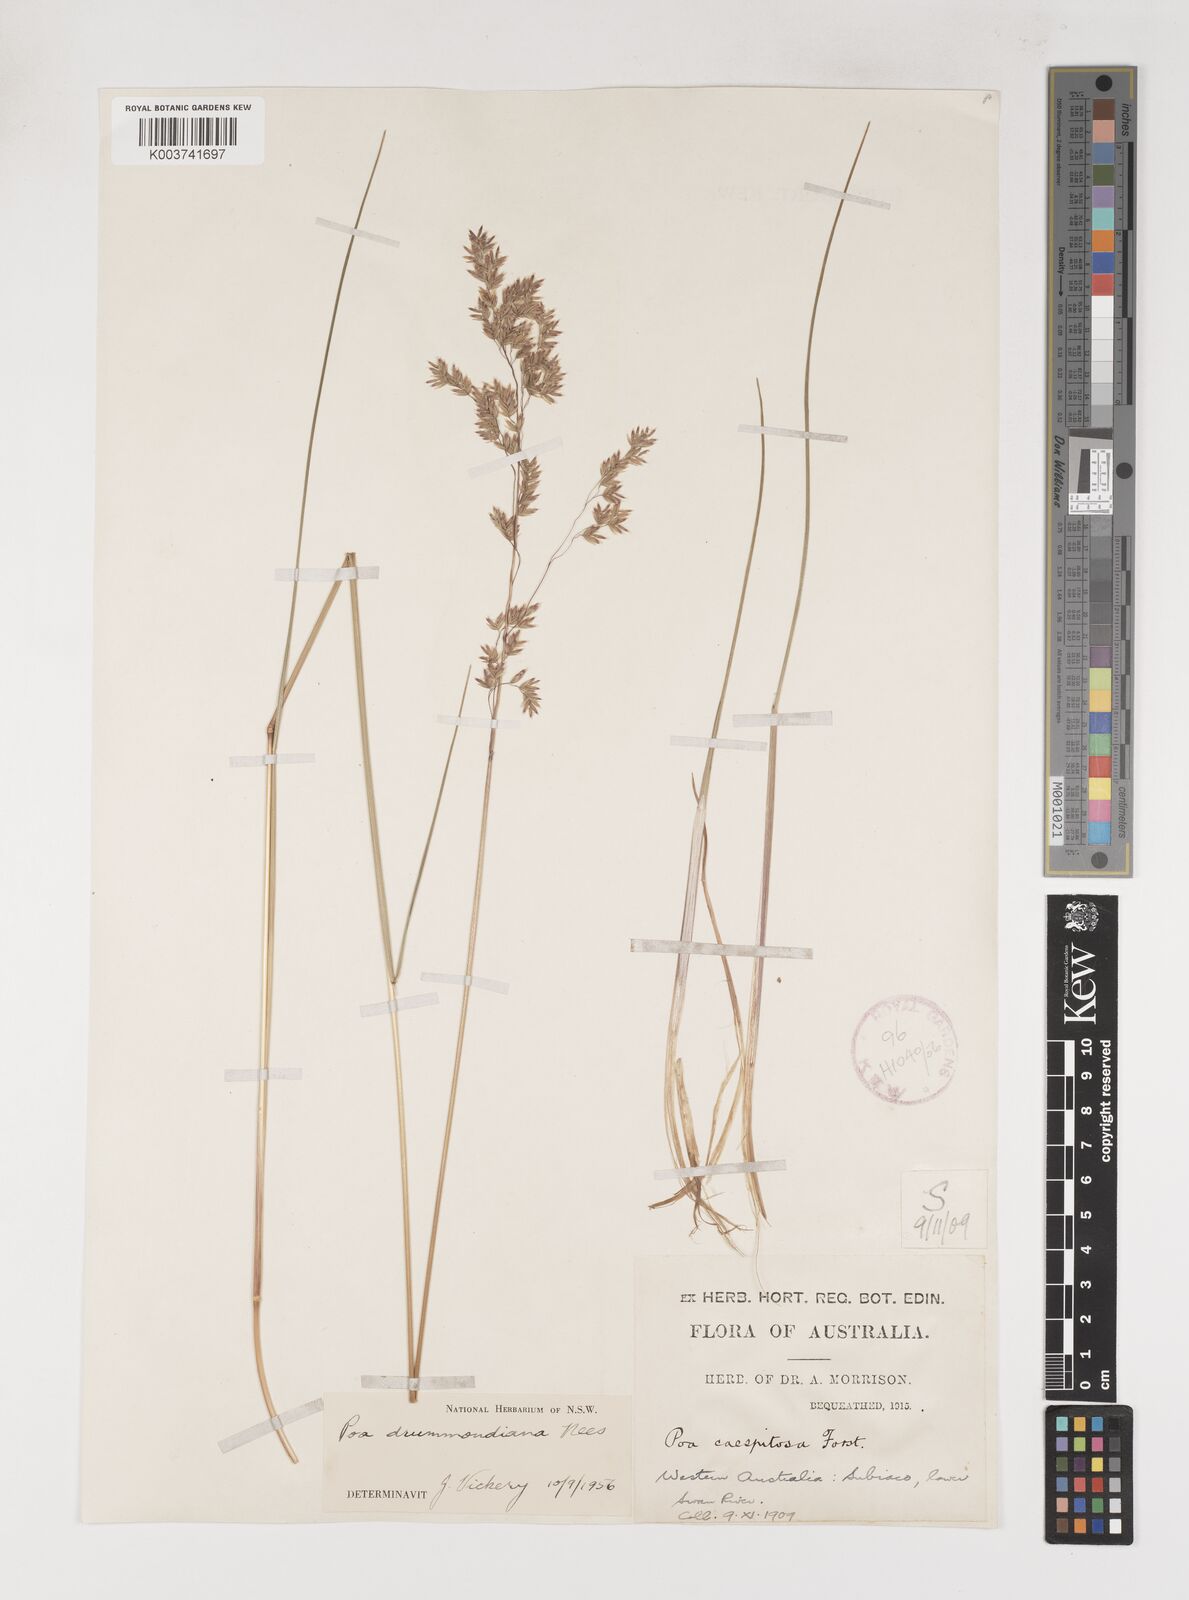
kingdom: Plantae
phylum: Tracheophyta
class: Liliopsida
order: Poales
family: Poaceae
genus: Poa
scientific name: Poa drummondiana
